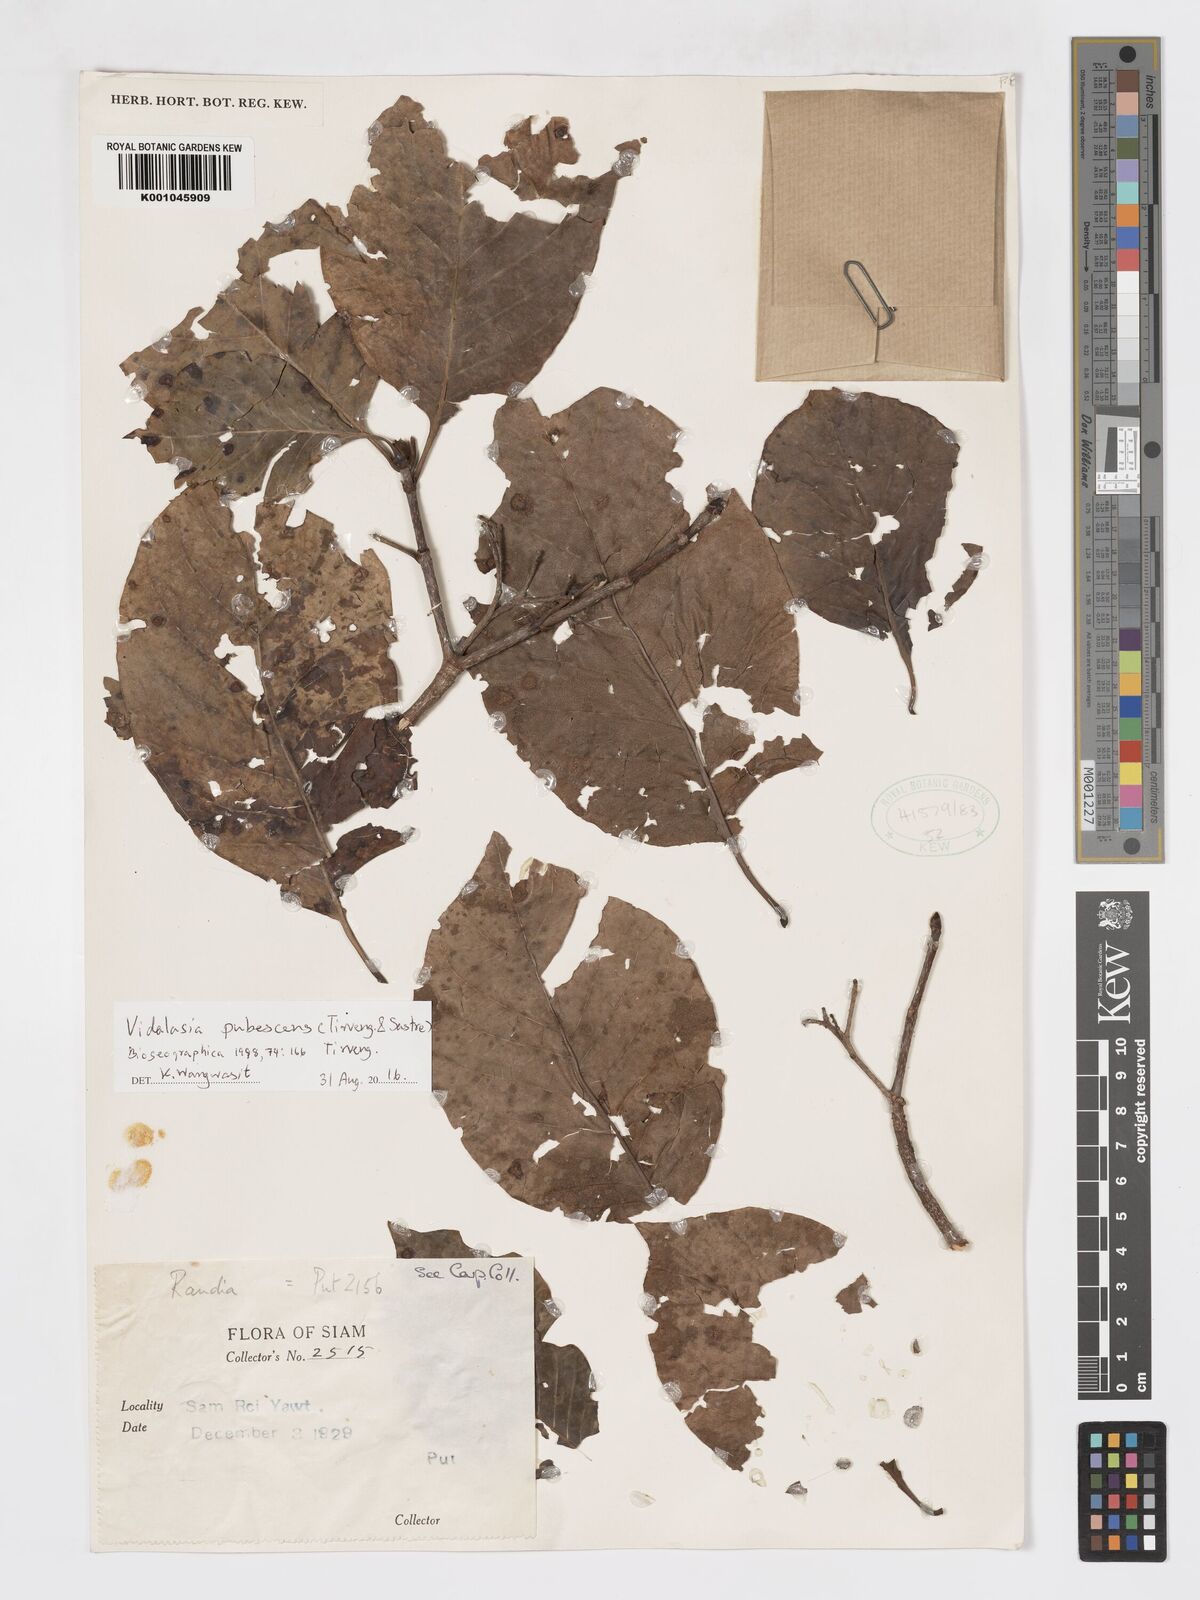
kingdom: Plantae
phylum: Tracheophyta
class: Magnoliopsida
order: Gentianales
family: Rubiaceae
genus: Vidalasia
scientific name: Vidalasia pubescens
